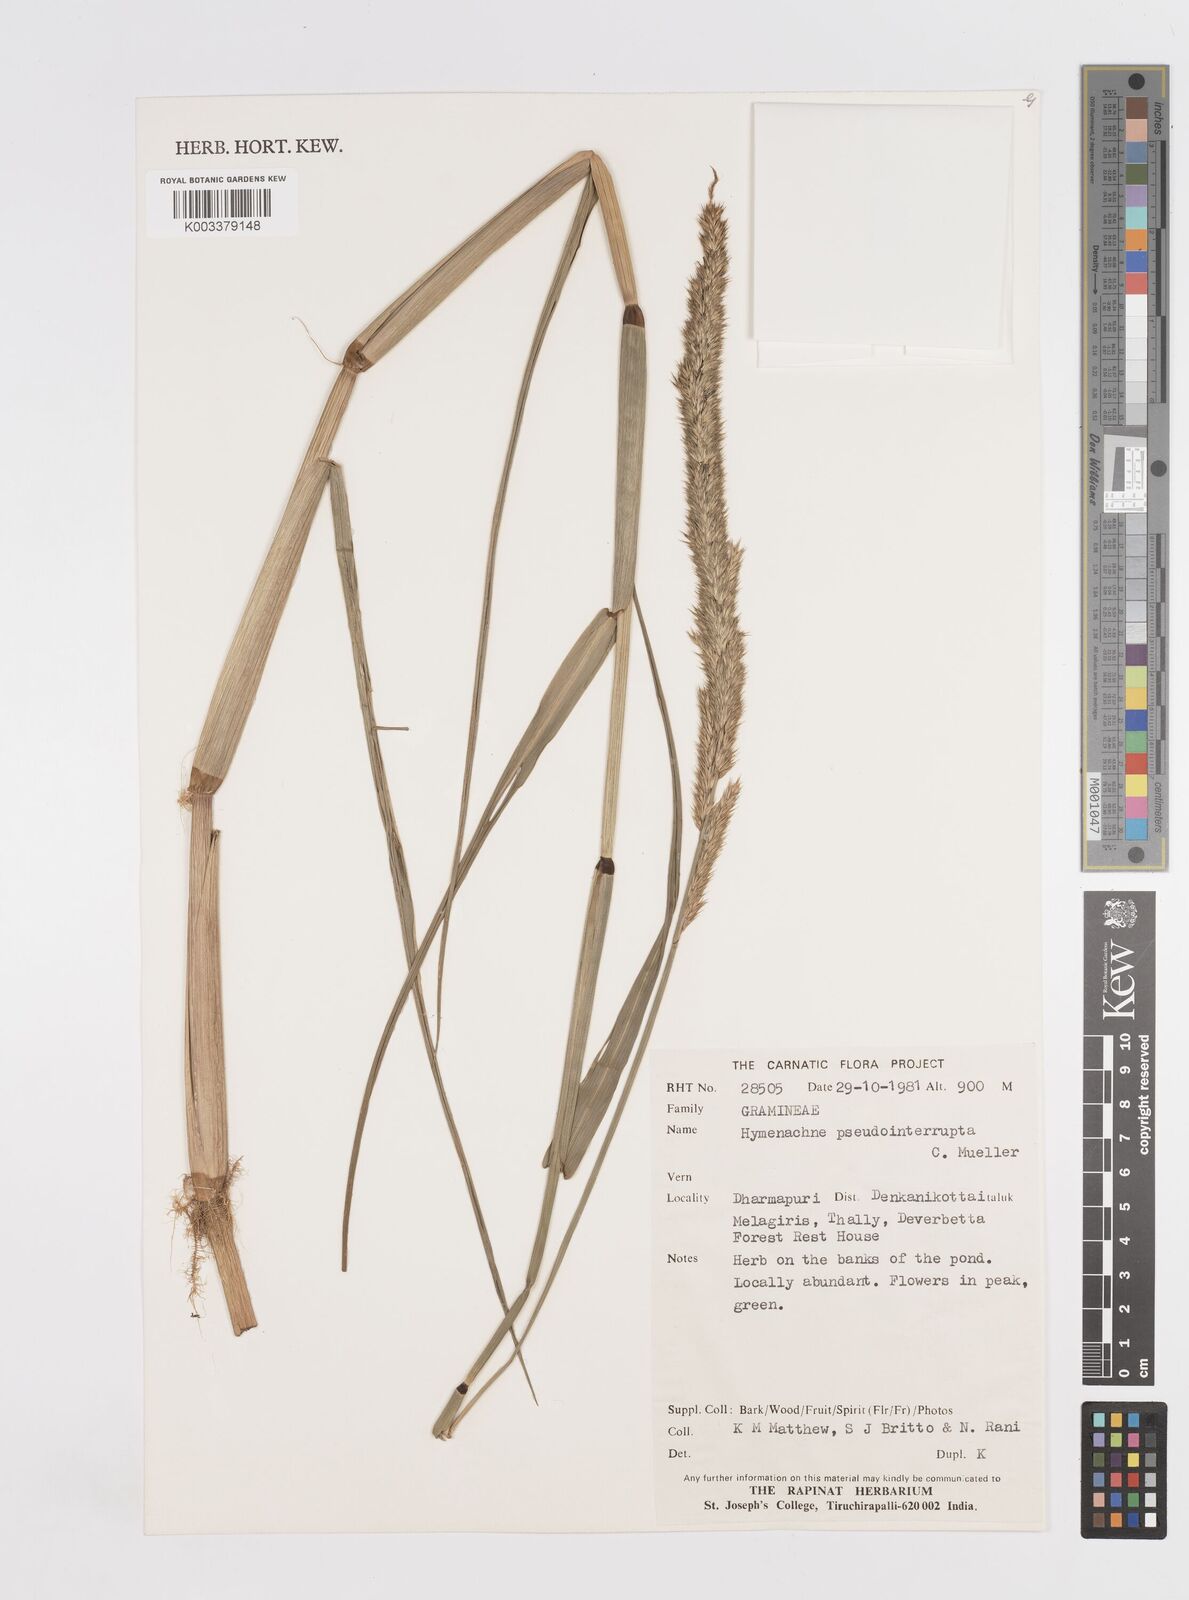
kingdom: Plantae
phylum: Tracheophyta
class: Liliopsida
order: Poales
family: Poaceae
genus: Hymenachne
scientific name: Hymenachne amplexicaulis
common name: Olive hymenachne
